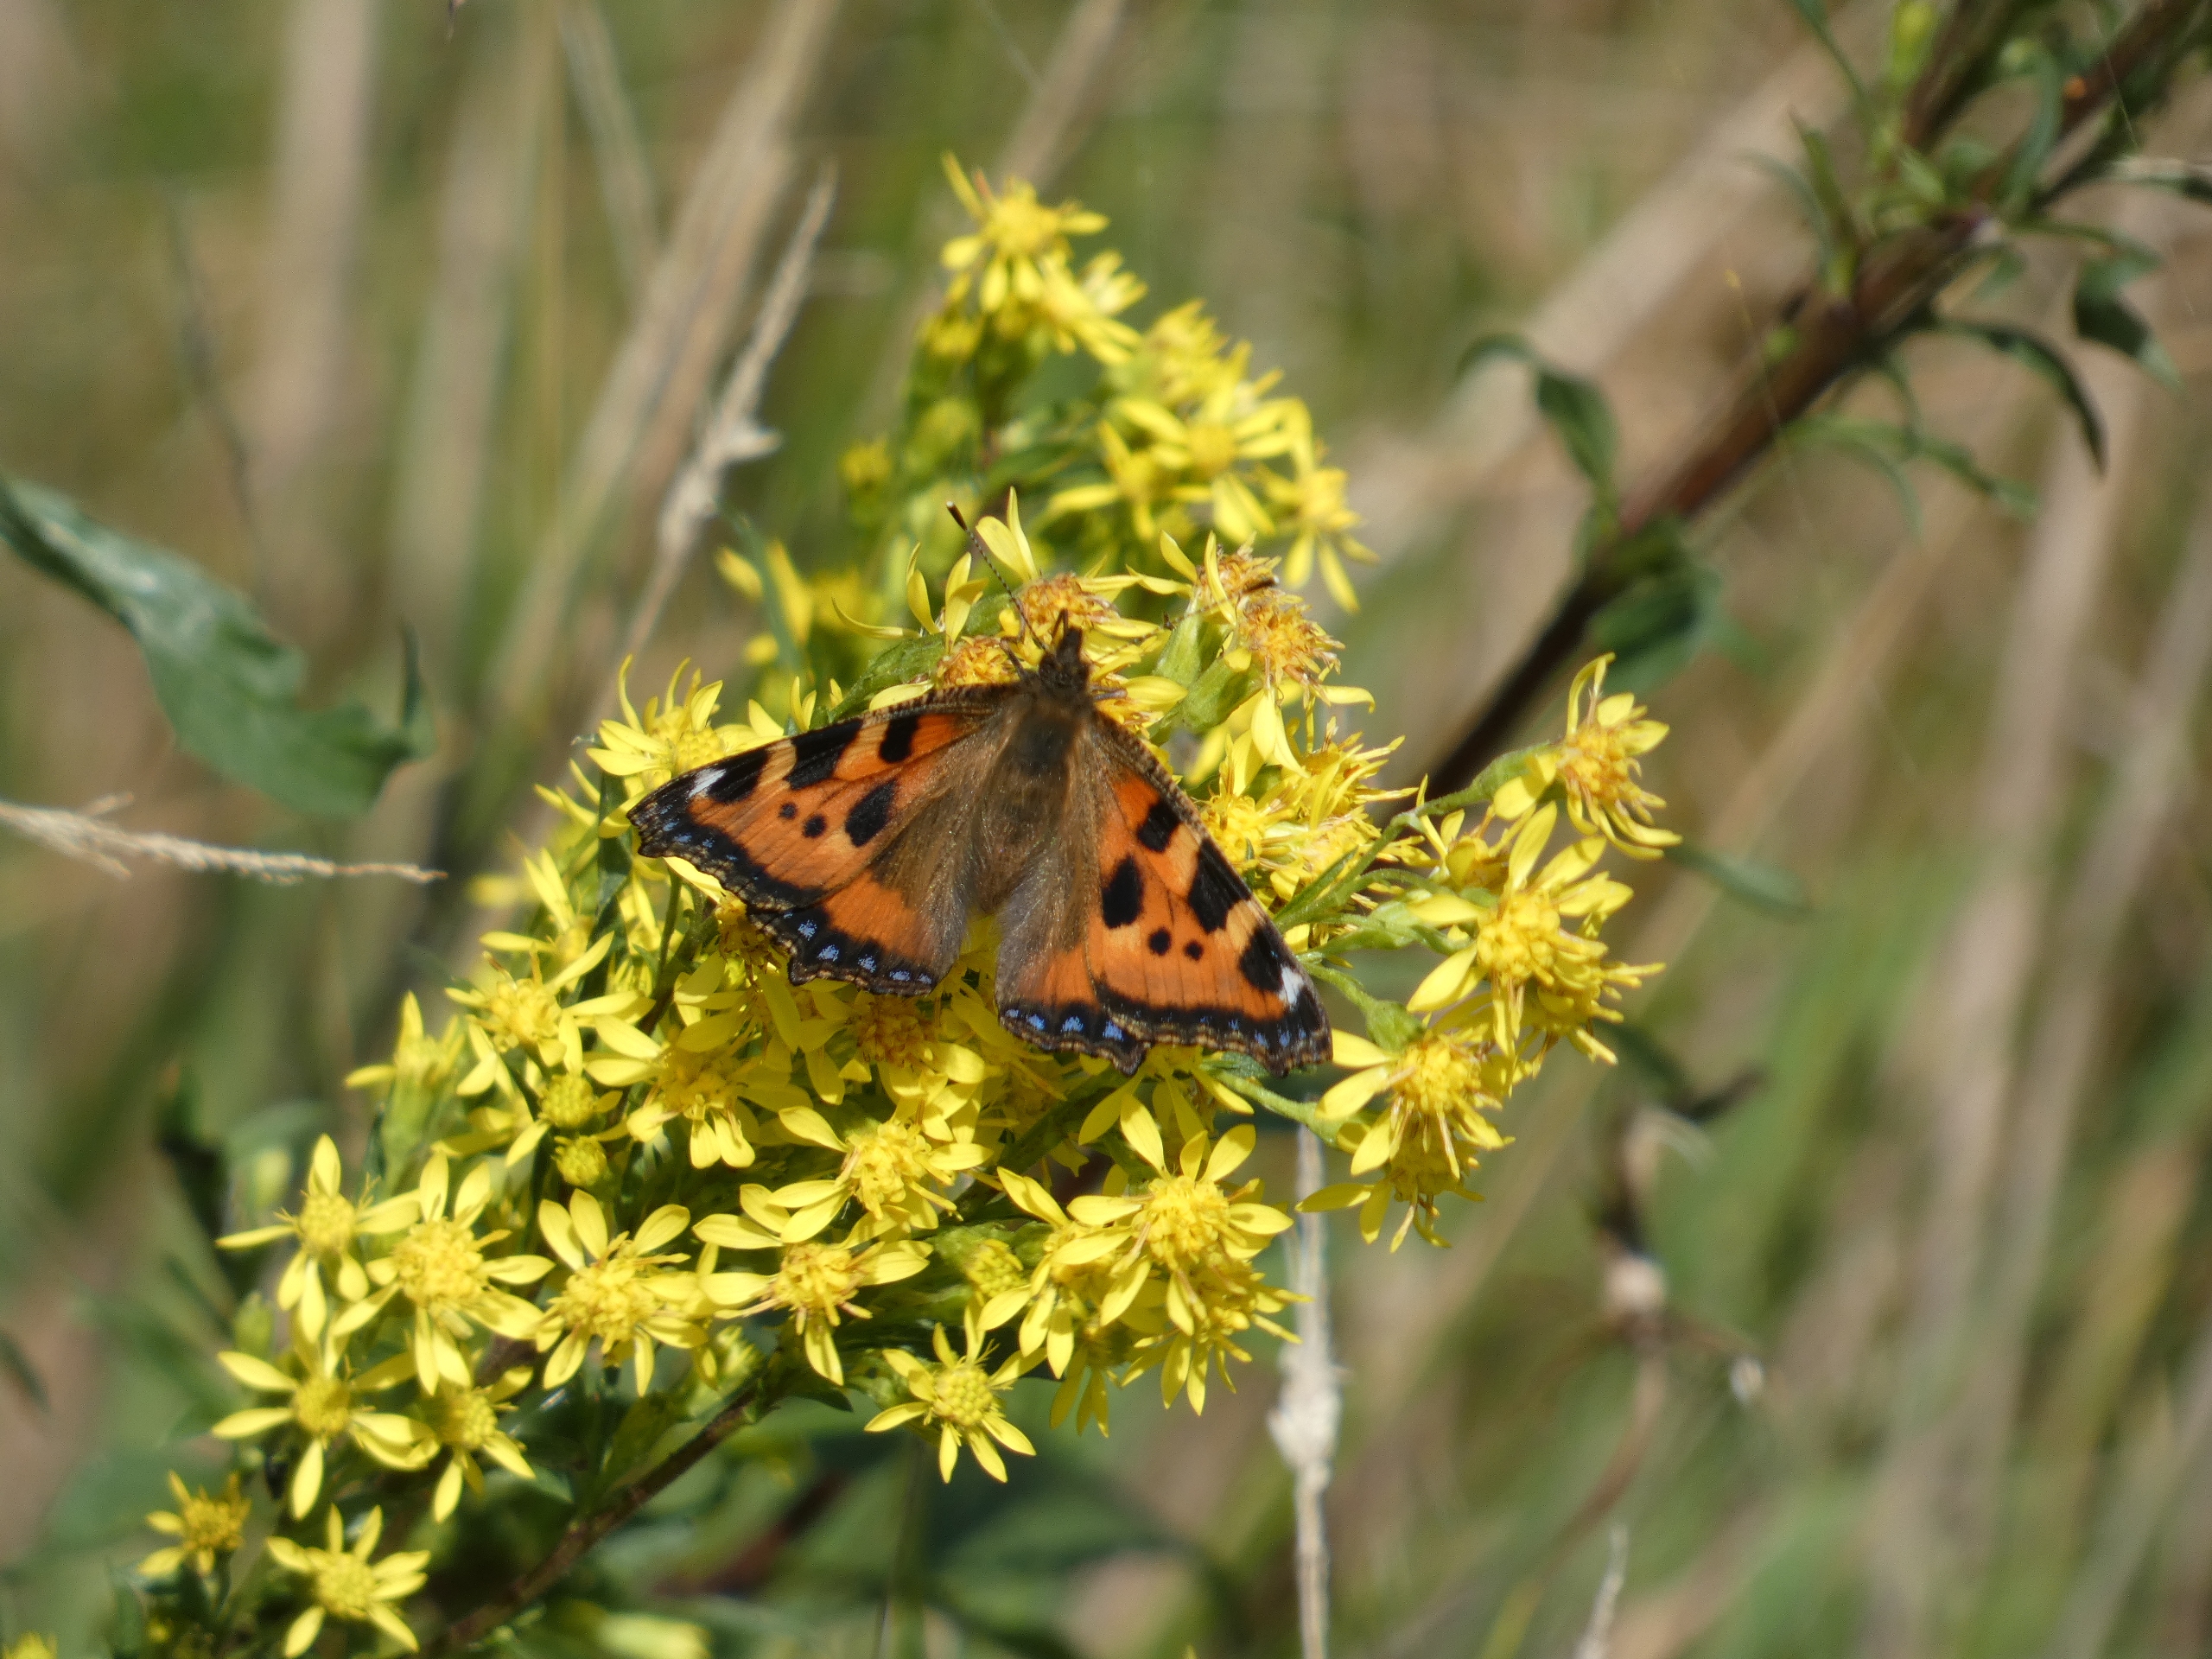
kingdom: Animalia
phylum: Arthropoda
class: Insecta
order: Lepidoptera
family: Nymphalidae
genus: Aglais
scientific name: Aglais urticae
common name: Nældens takvinge
